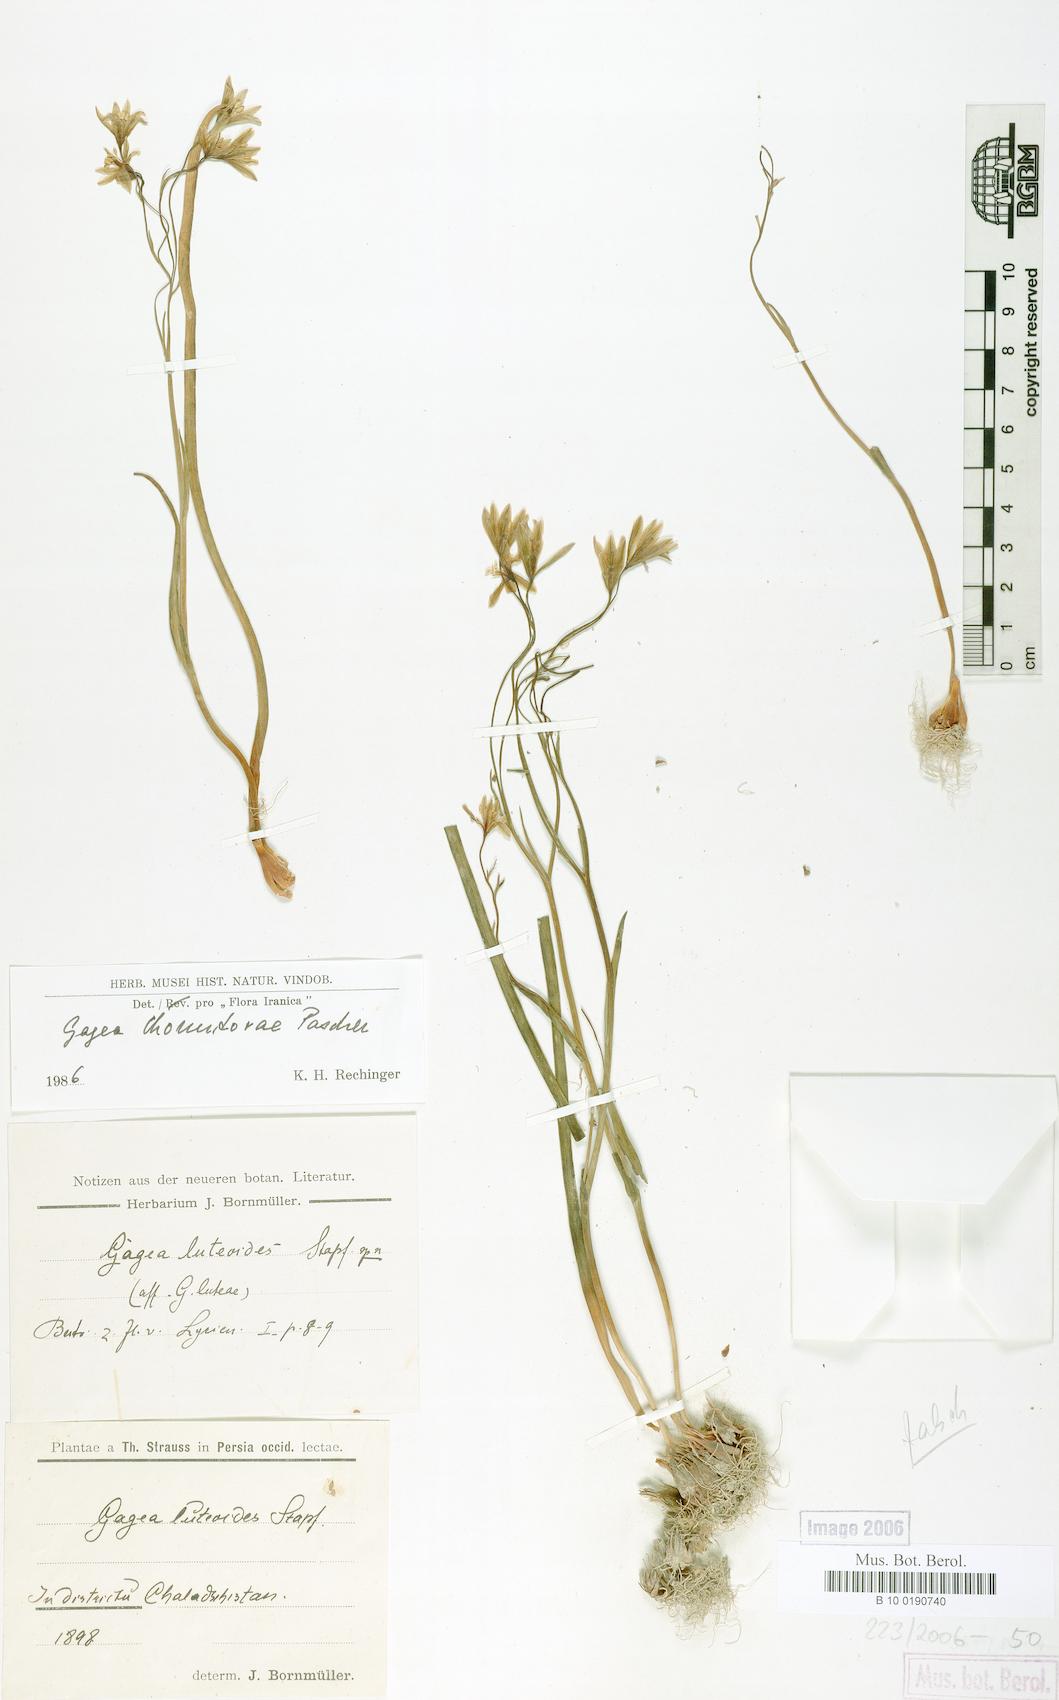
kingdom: Plantae
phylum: Tracheophyta
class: Liliopsida
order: Liliales
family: Liliaceae
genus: Gagea
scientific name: Gagea chomutovae
